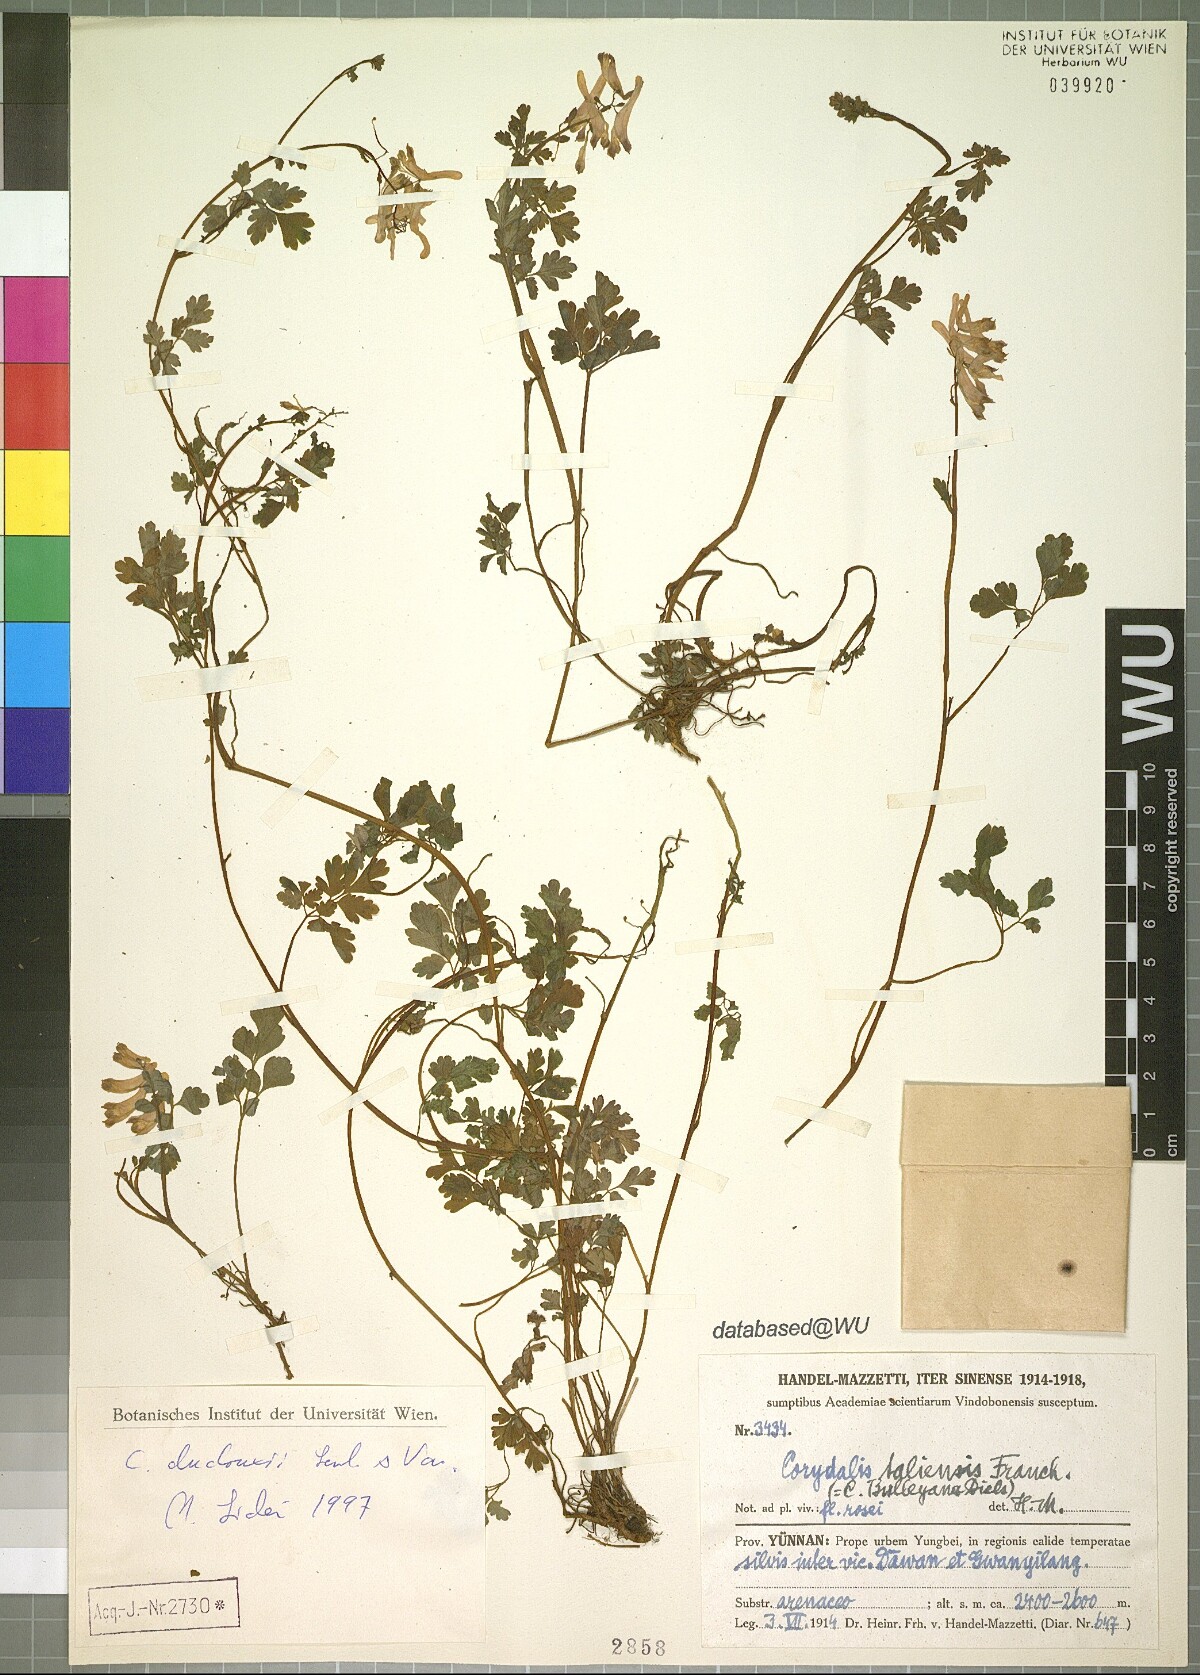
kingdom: Plantae
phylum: Tracheophyta
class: Magnoliopsida
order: Ranunculales
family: Papaveraceae
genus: Corydalis
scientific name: Corydalis duclouxii
